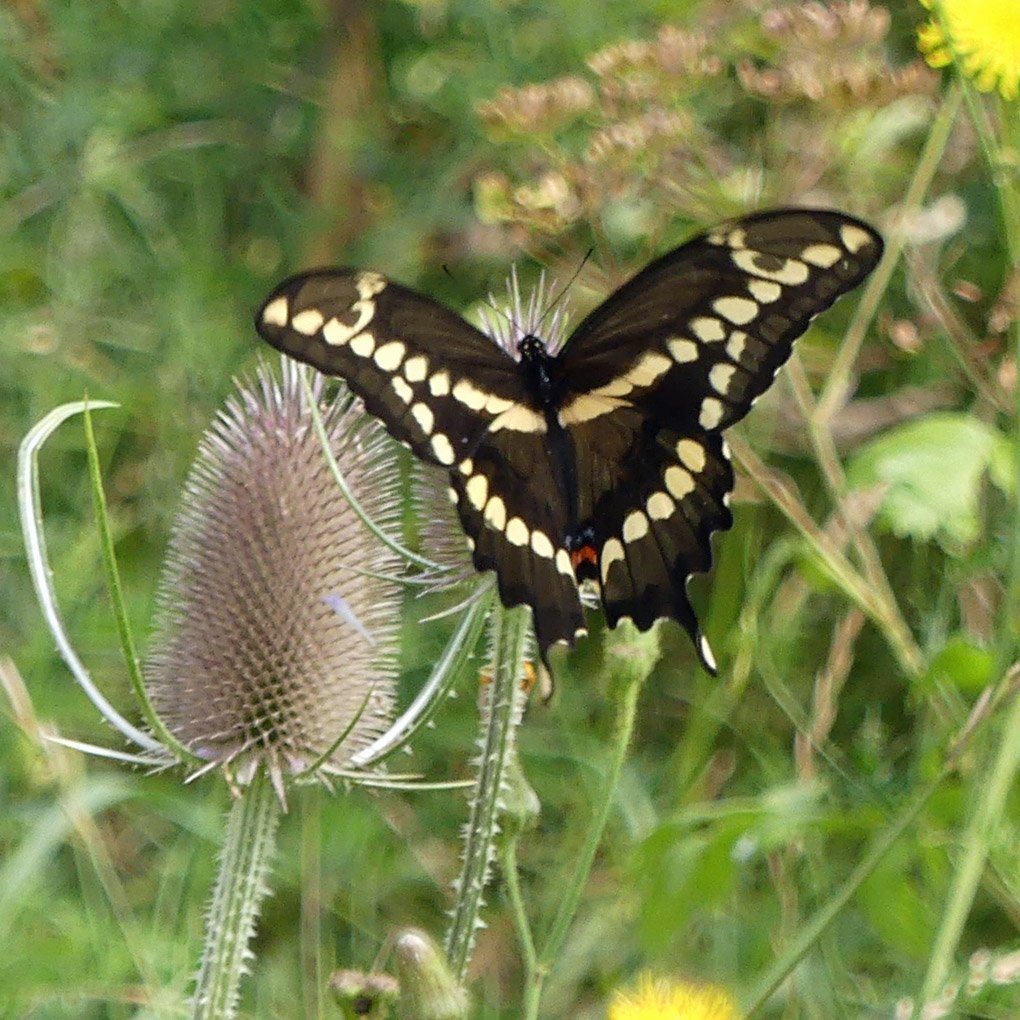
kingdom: Animalia
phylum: Arthropoda
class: Insecta
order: Lepidoptera
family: Papilionidae
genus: Papilio
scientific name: Papilio cresphontes
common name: Eastern Giant Swallowtail
